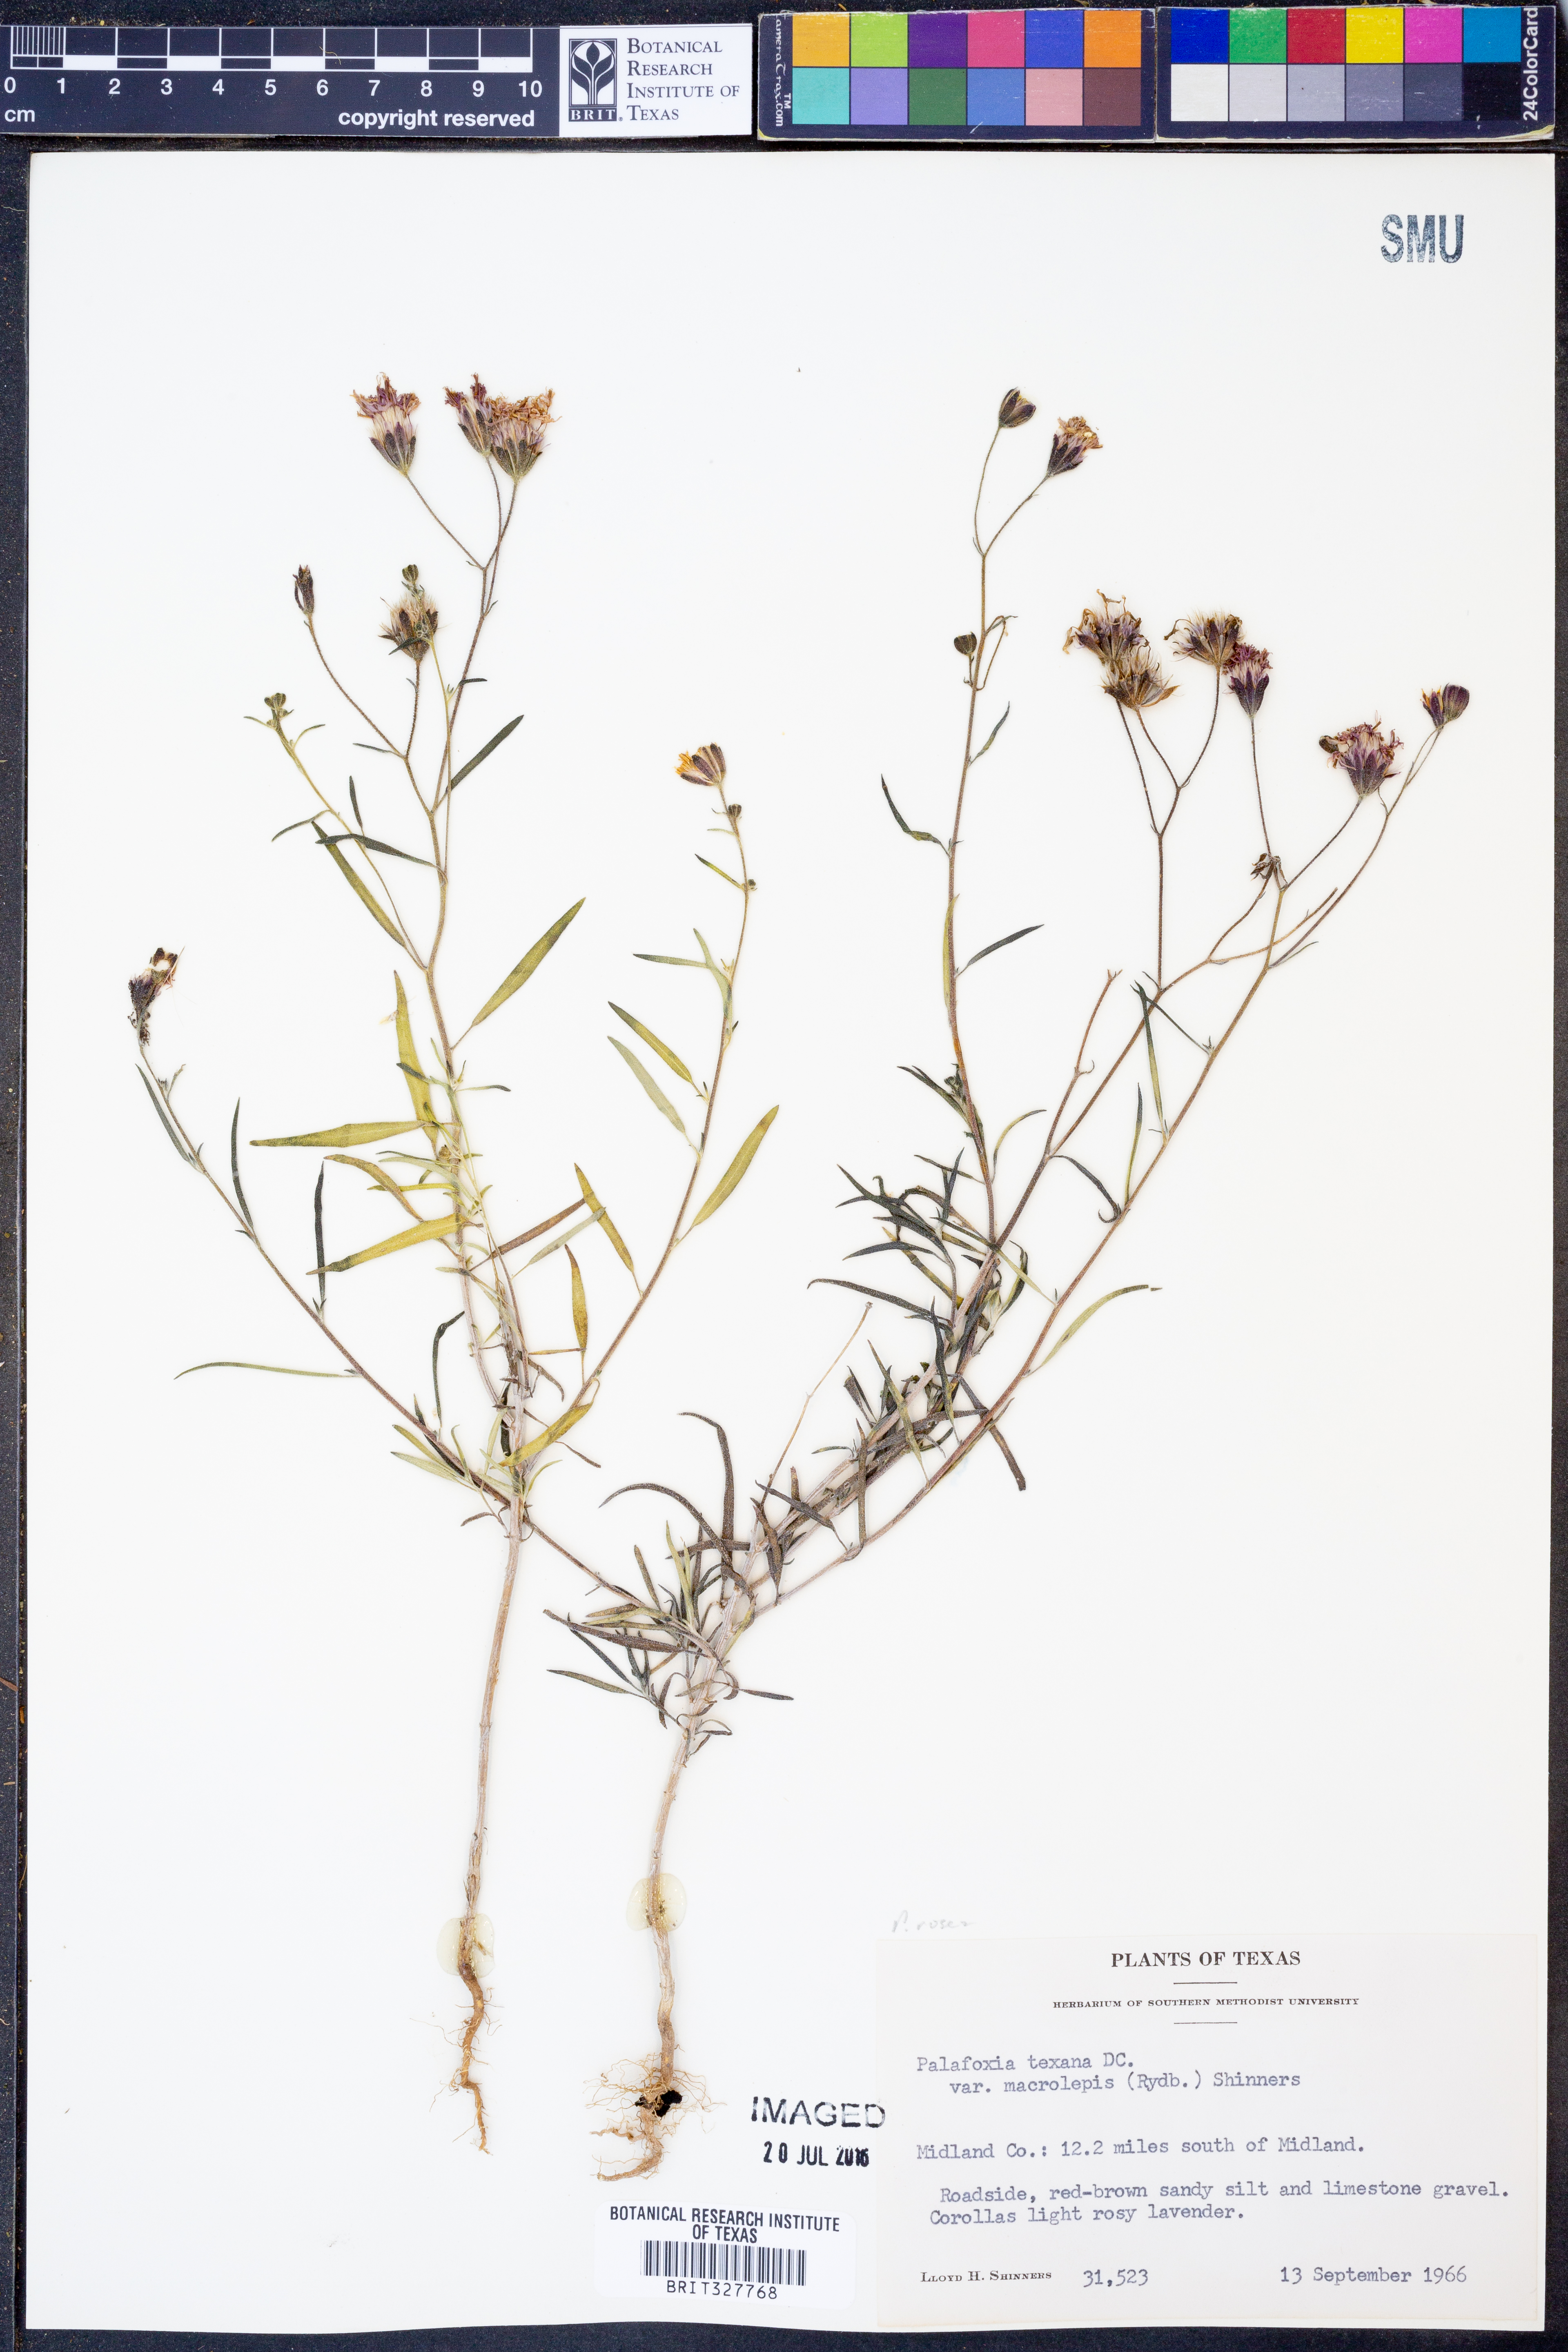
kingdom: Plantae
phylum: Tracheophyta
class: Magnoliopsida
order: Asterales
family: Asteraceae
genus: Palafoxia
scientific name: Palafoxia rosea
